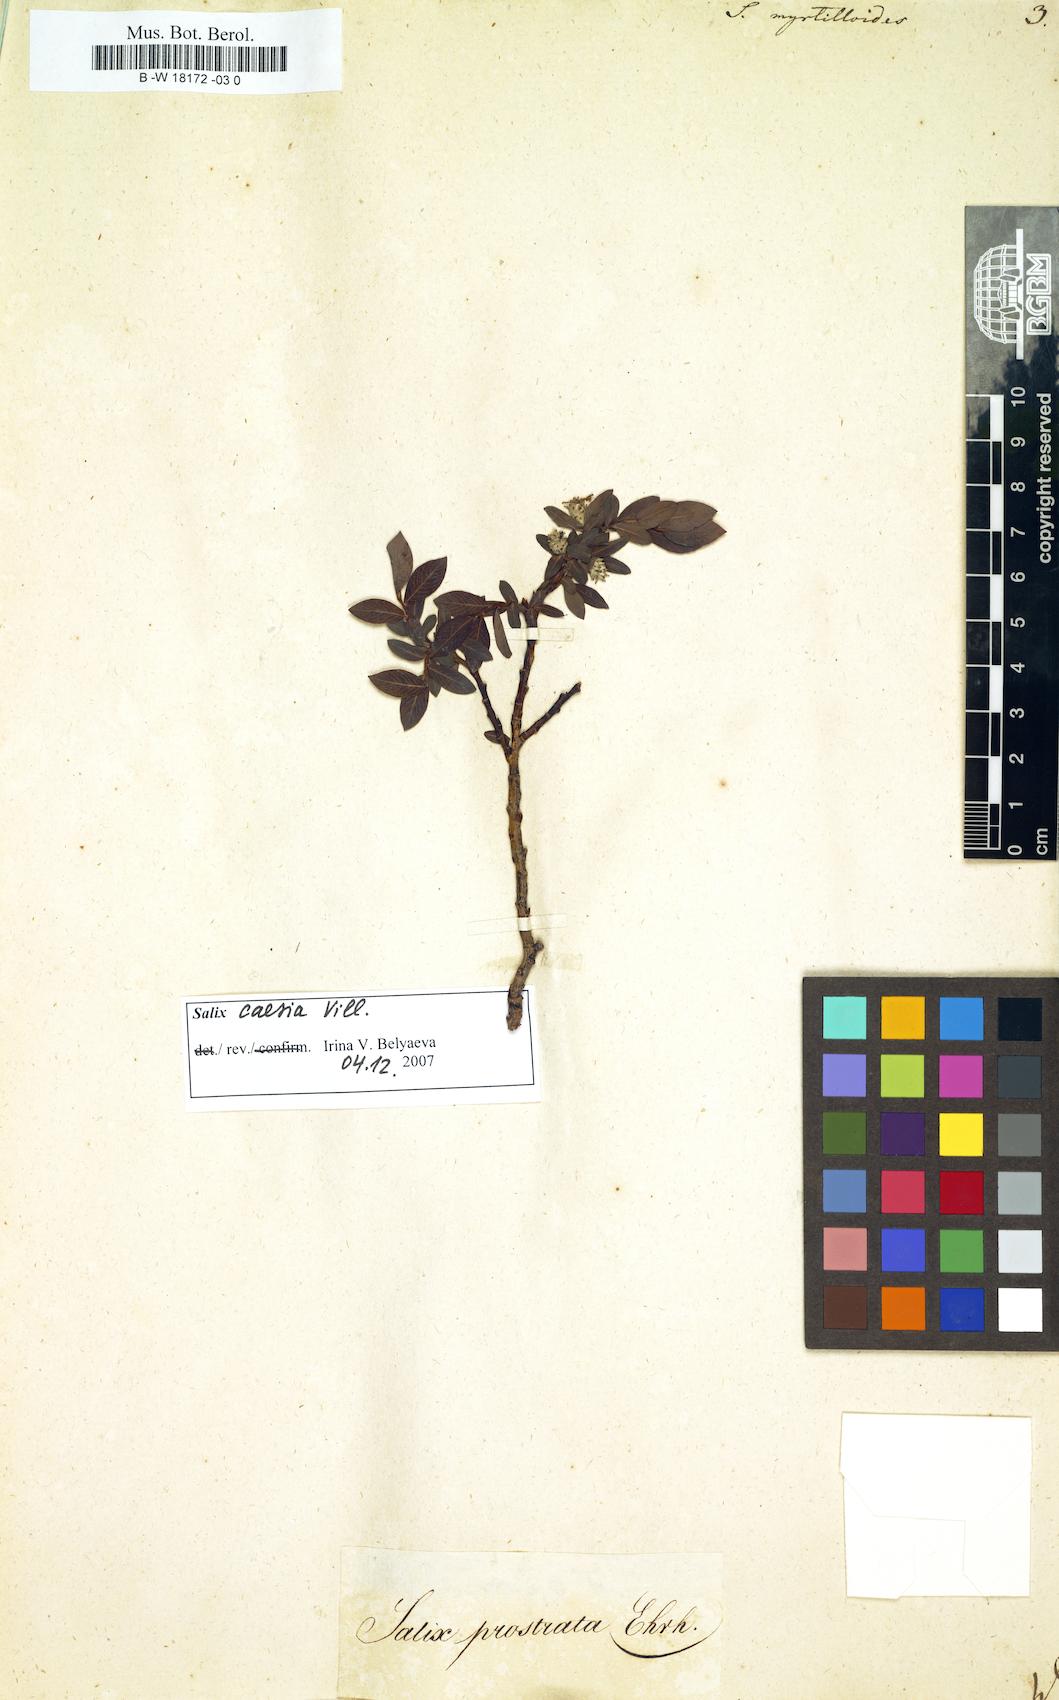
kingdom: Plantae
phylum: Tracheophyta
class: Magnoliopsida
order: Malpighiales
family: Salicaceae
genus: Salix
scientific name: Salix myrtilloides
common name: Myrtle-leaved willow
